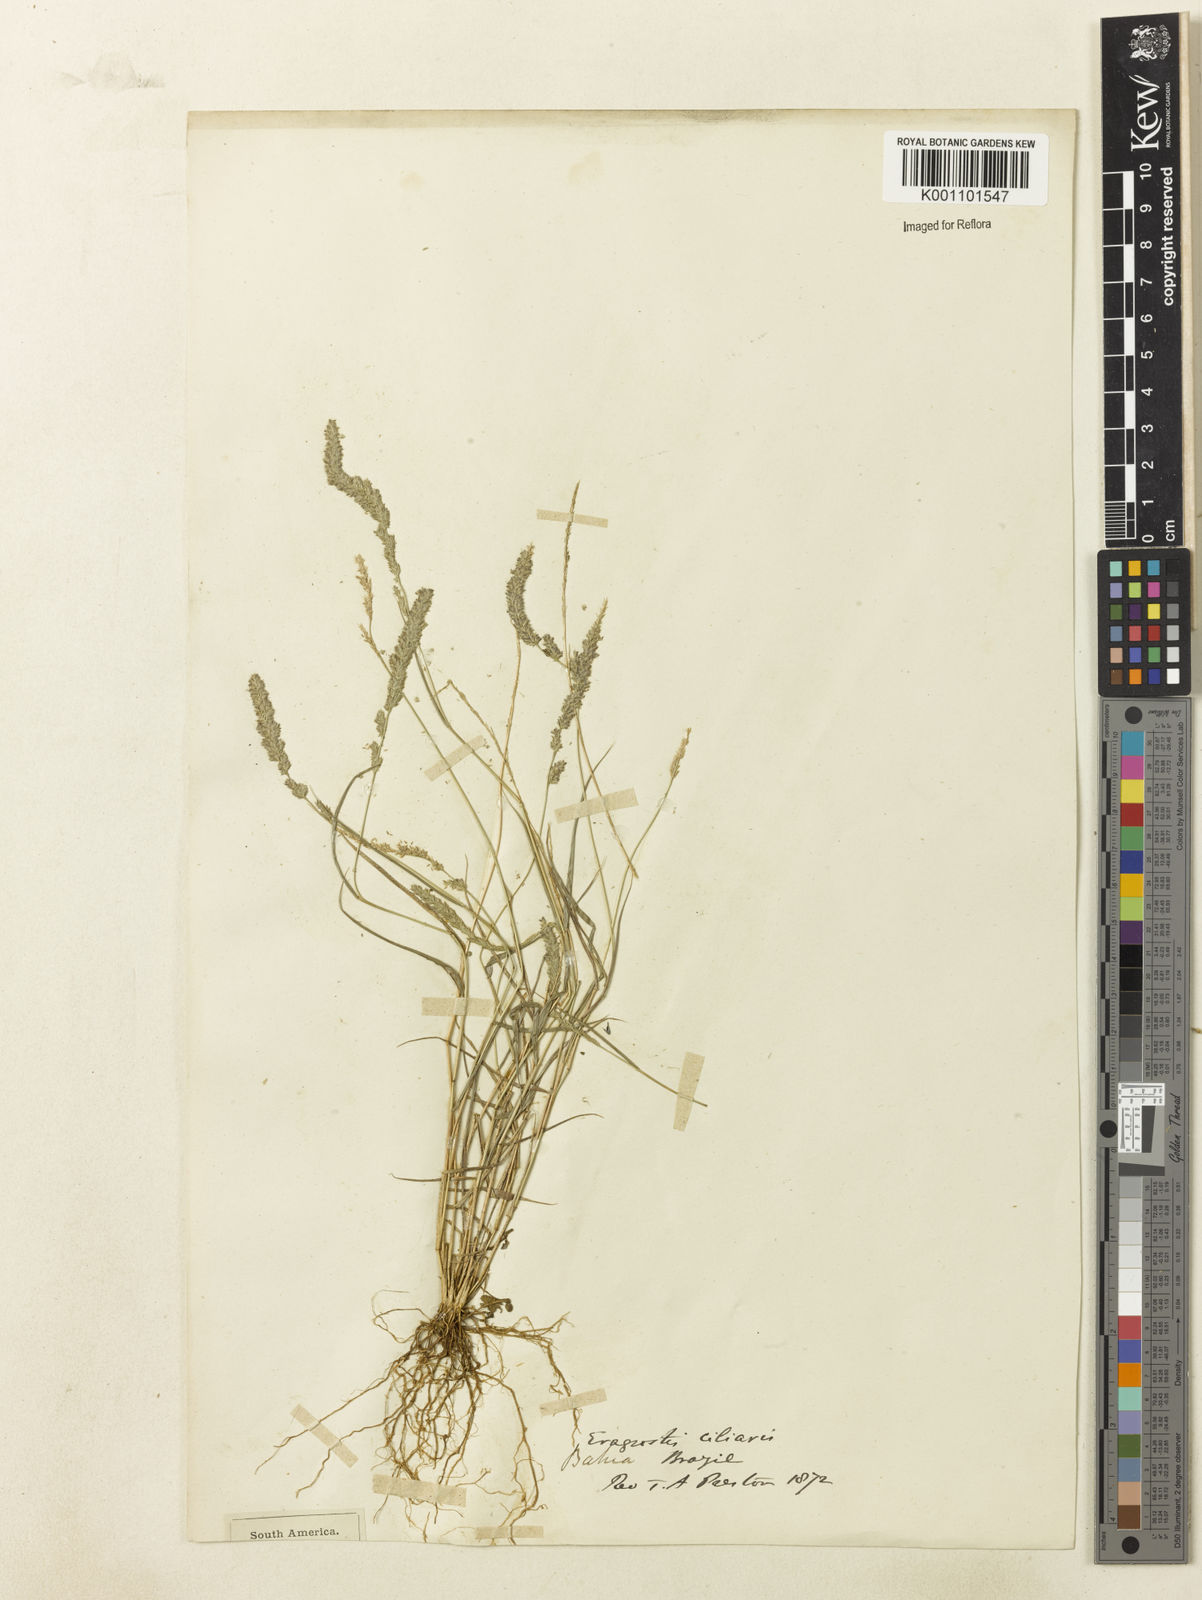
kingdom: Plantae
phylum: Tracheophyta
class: Liliopsida
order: Poales
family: Poaceae
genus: Eragrostis
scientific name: Eragrostis ciliaris
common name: Gophertail lovegrass
